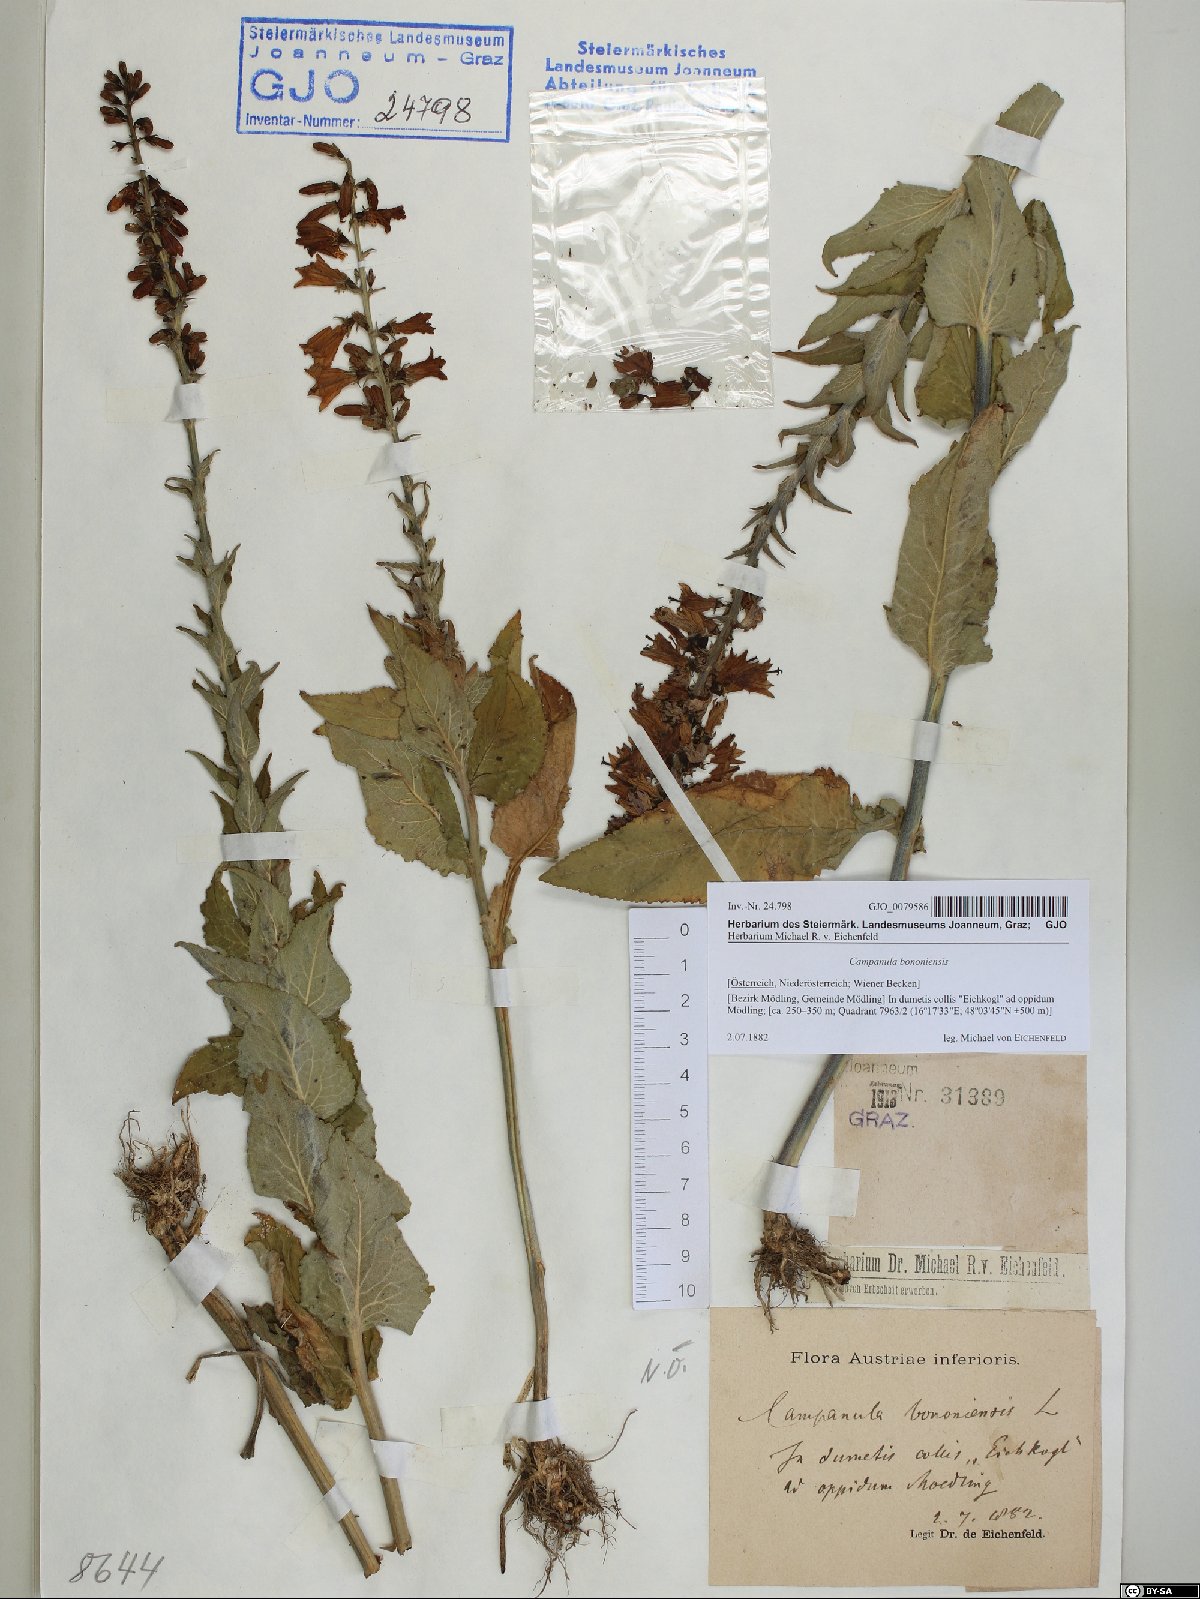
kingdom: Plantae
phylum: Tracheophyta
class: Magnoliopsida
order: Asterales
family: Campanulaceae
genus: Campanula
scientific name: Campanula bononiensis
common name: Pale bellflower
